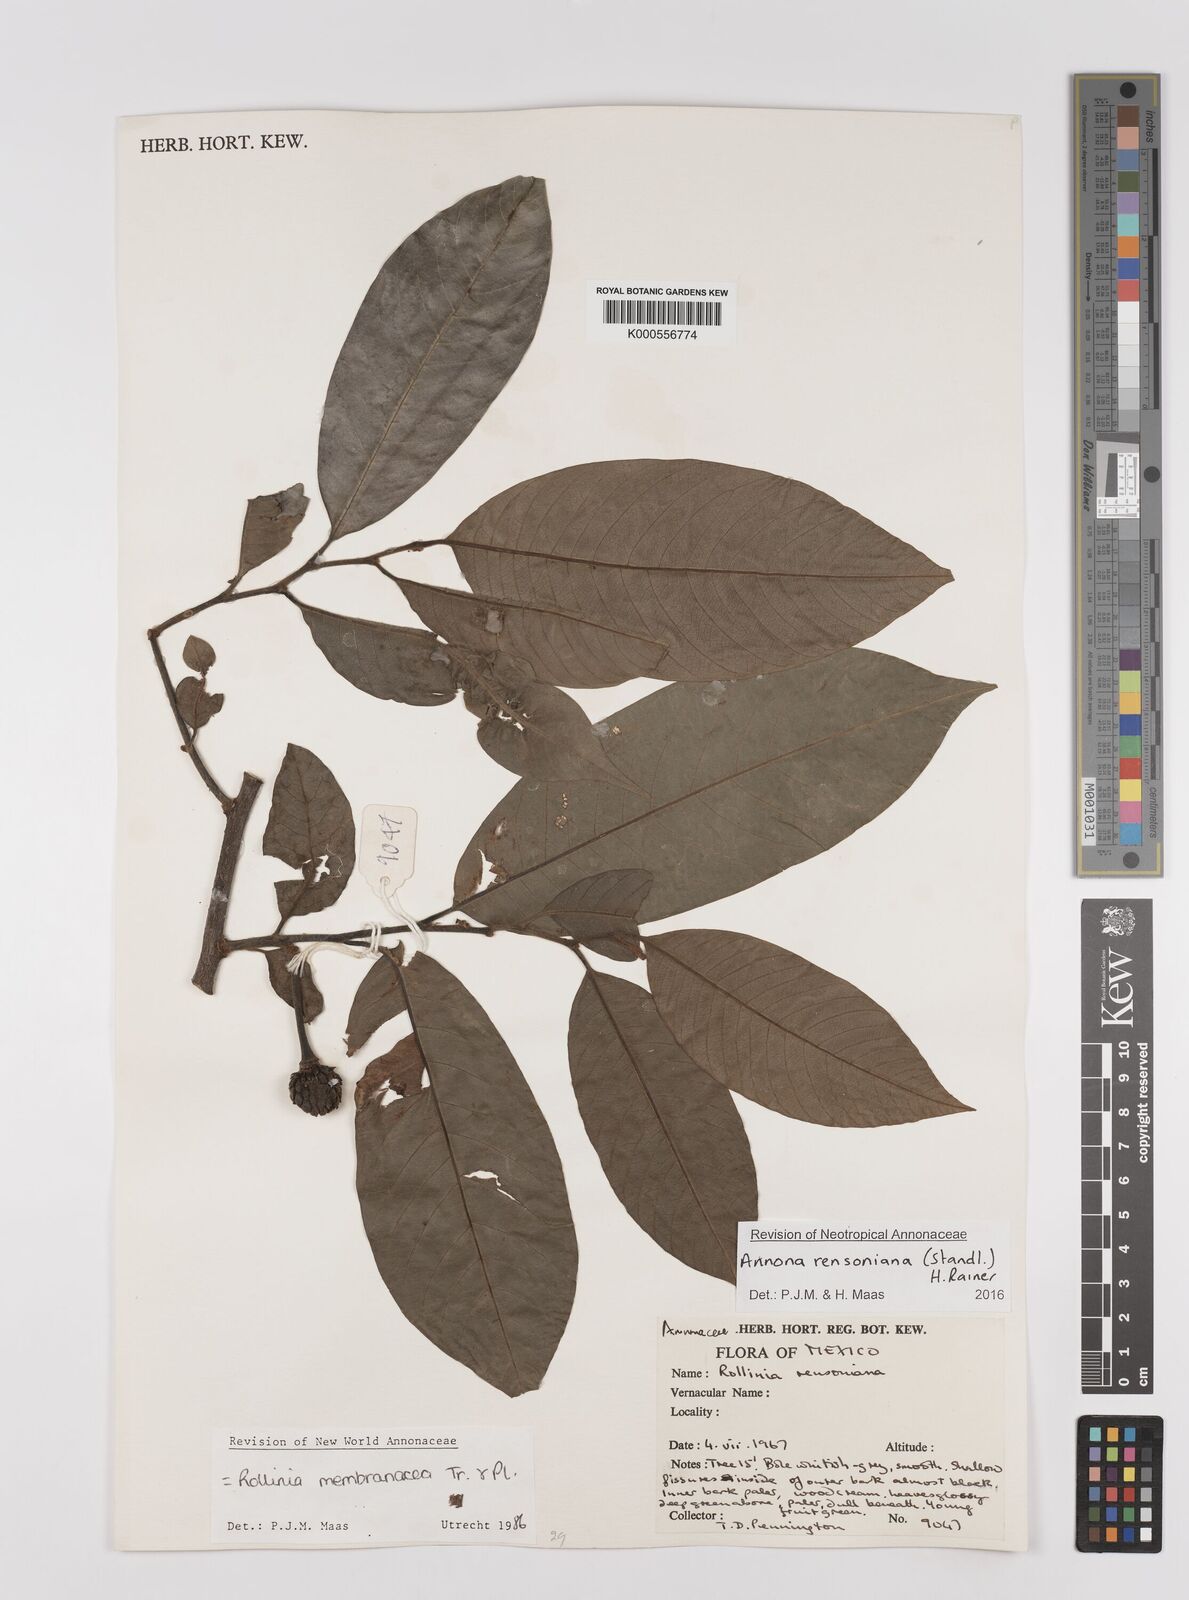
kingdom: Plantae
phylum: Tracheophyta
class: Magnoliopsida
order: Magnoliales
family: Annonaceae
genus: Annona
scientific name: Annona rensoniana
